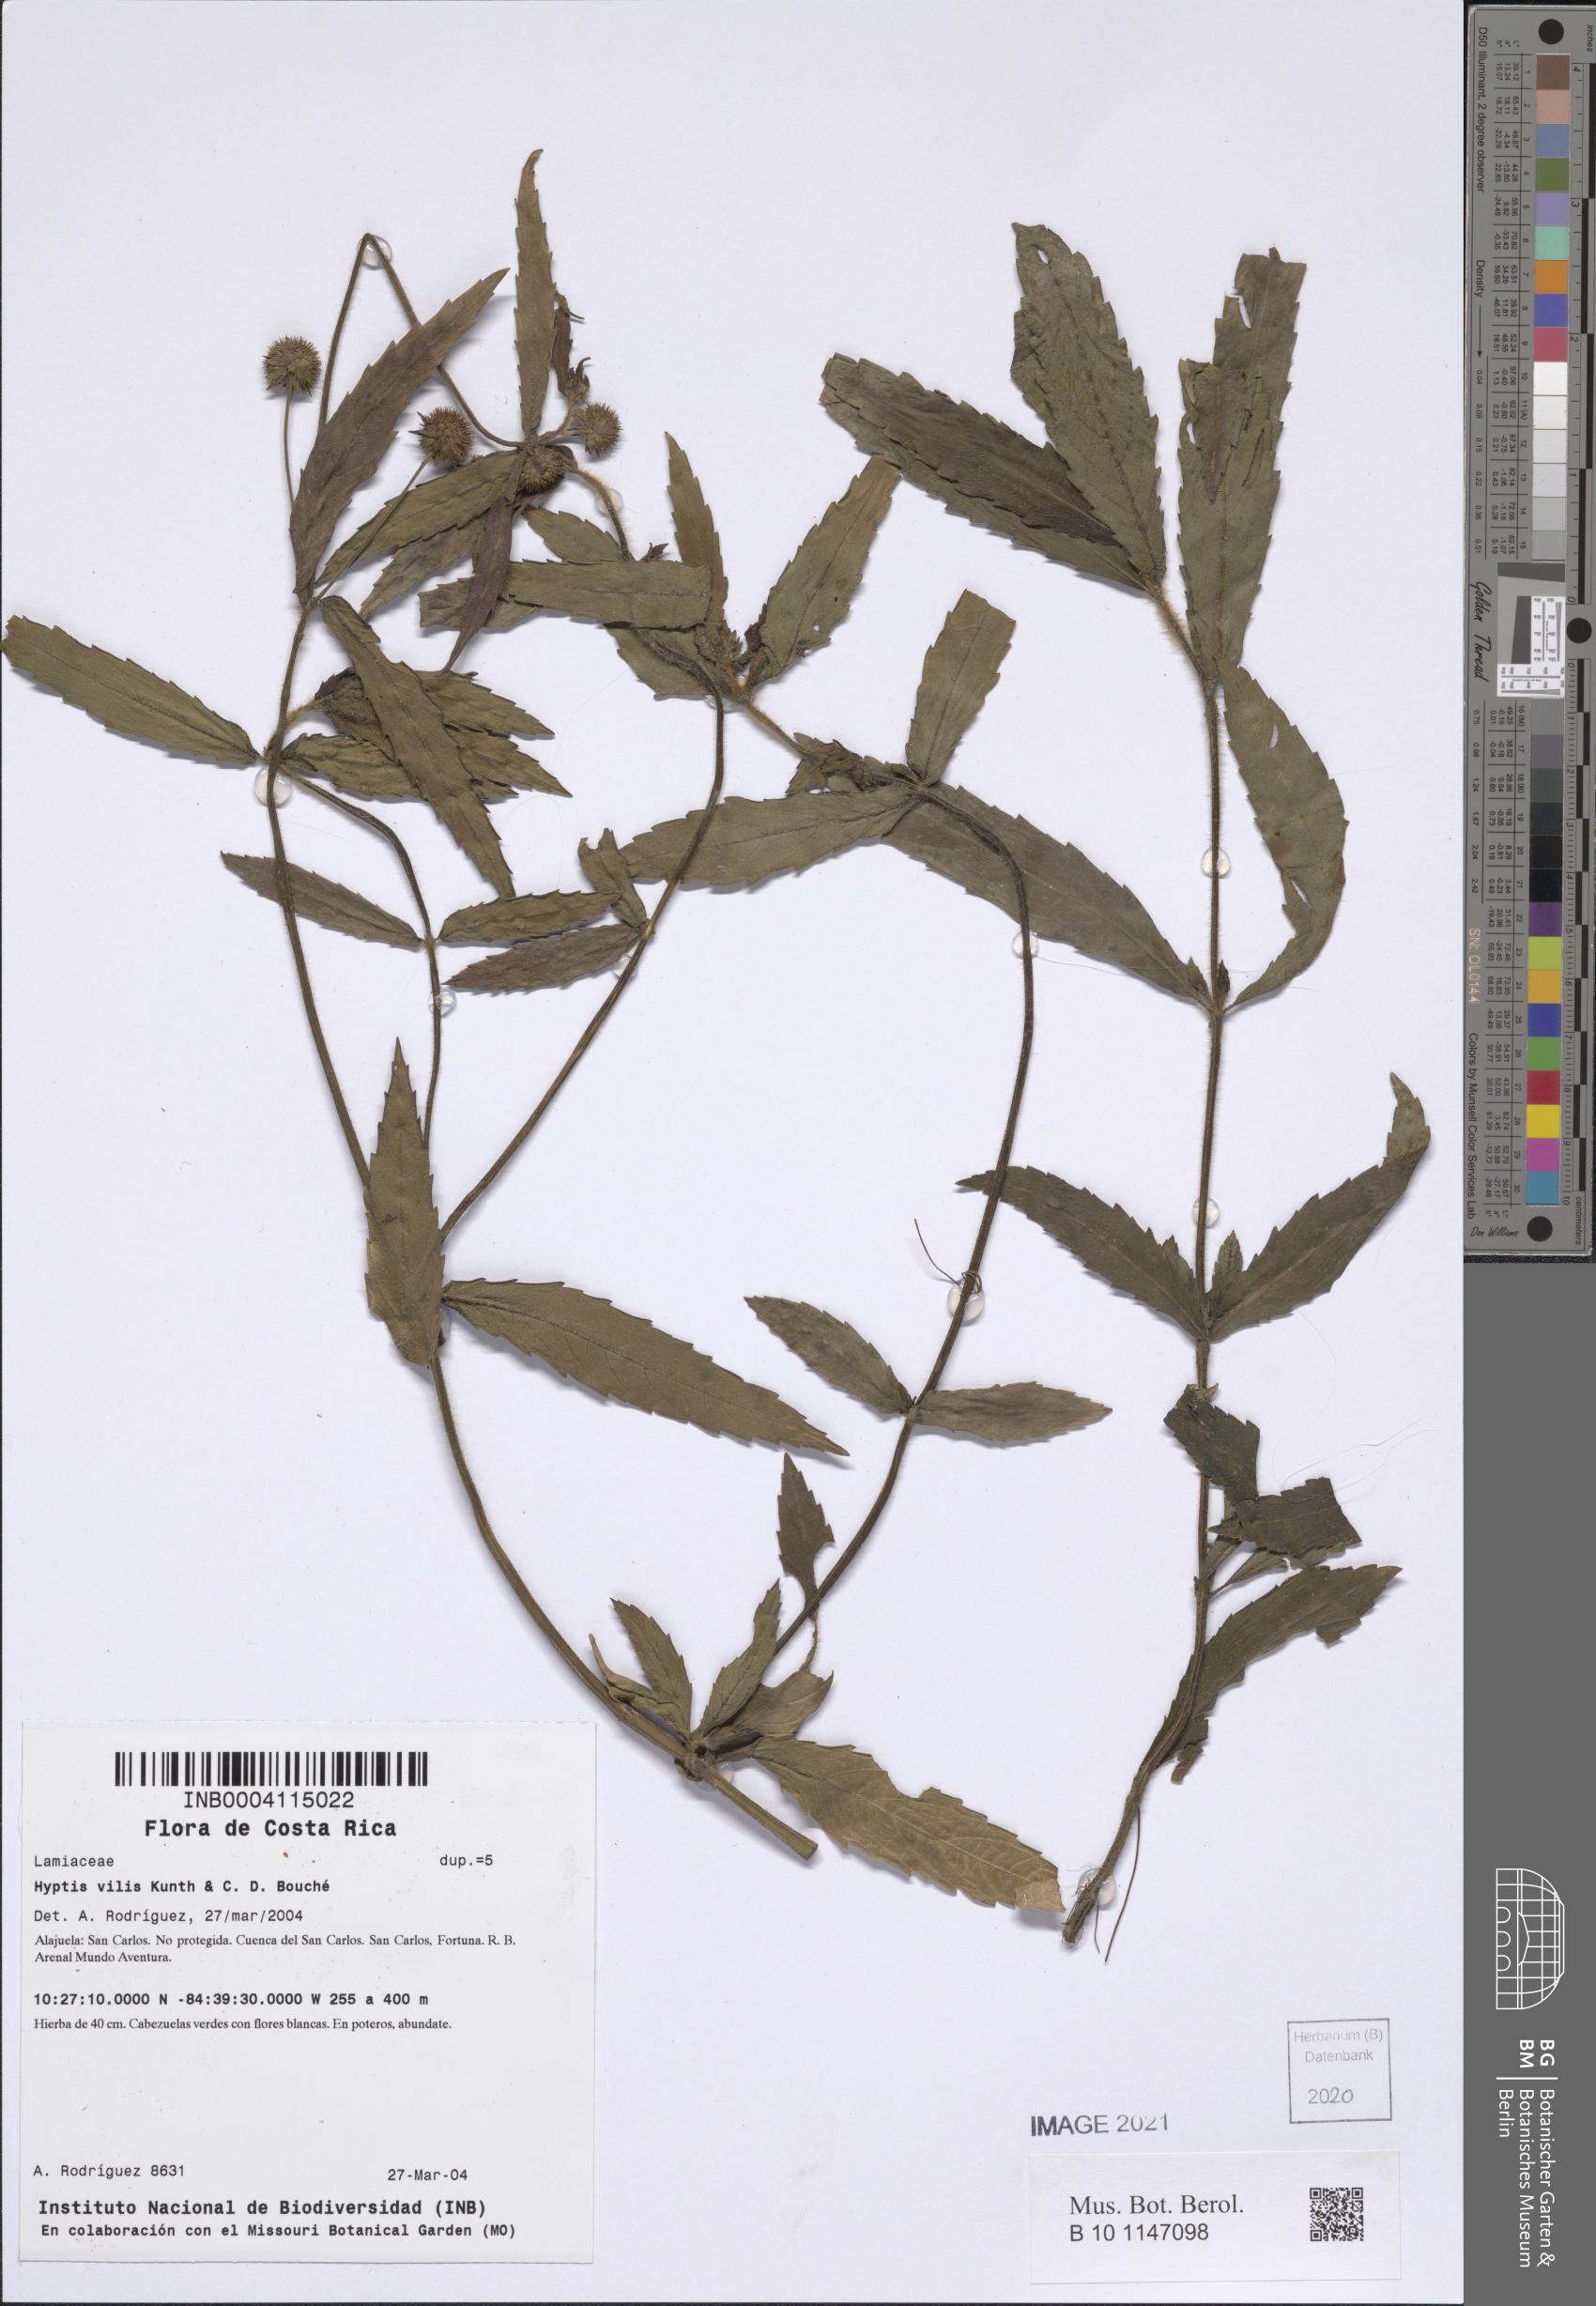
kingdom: Plantae
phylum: Tracheophyta
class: Magnoliopsida
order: Lamiales
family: Lamiaceae
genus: Hyptis
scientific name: Hyptis vilis
